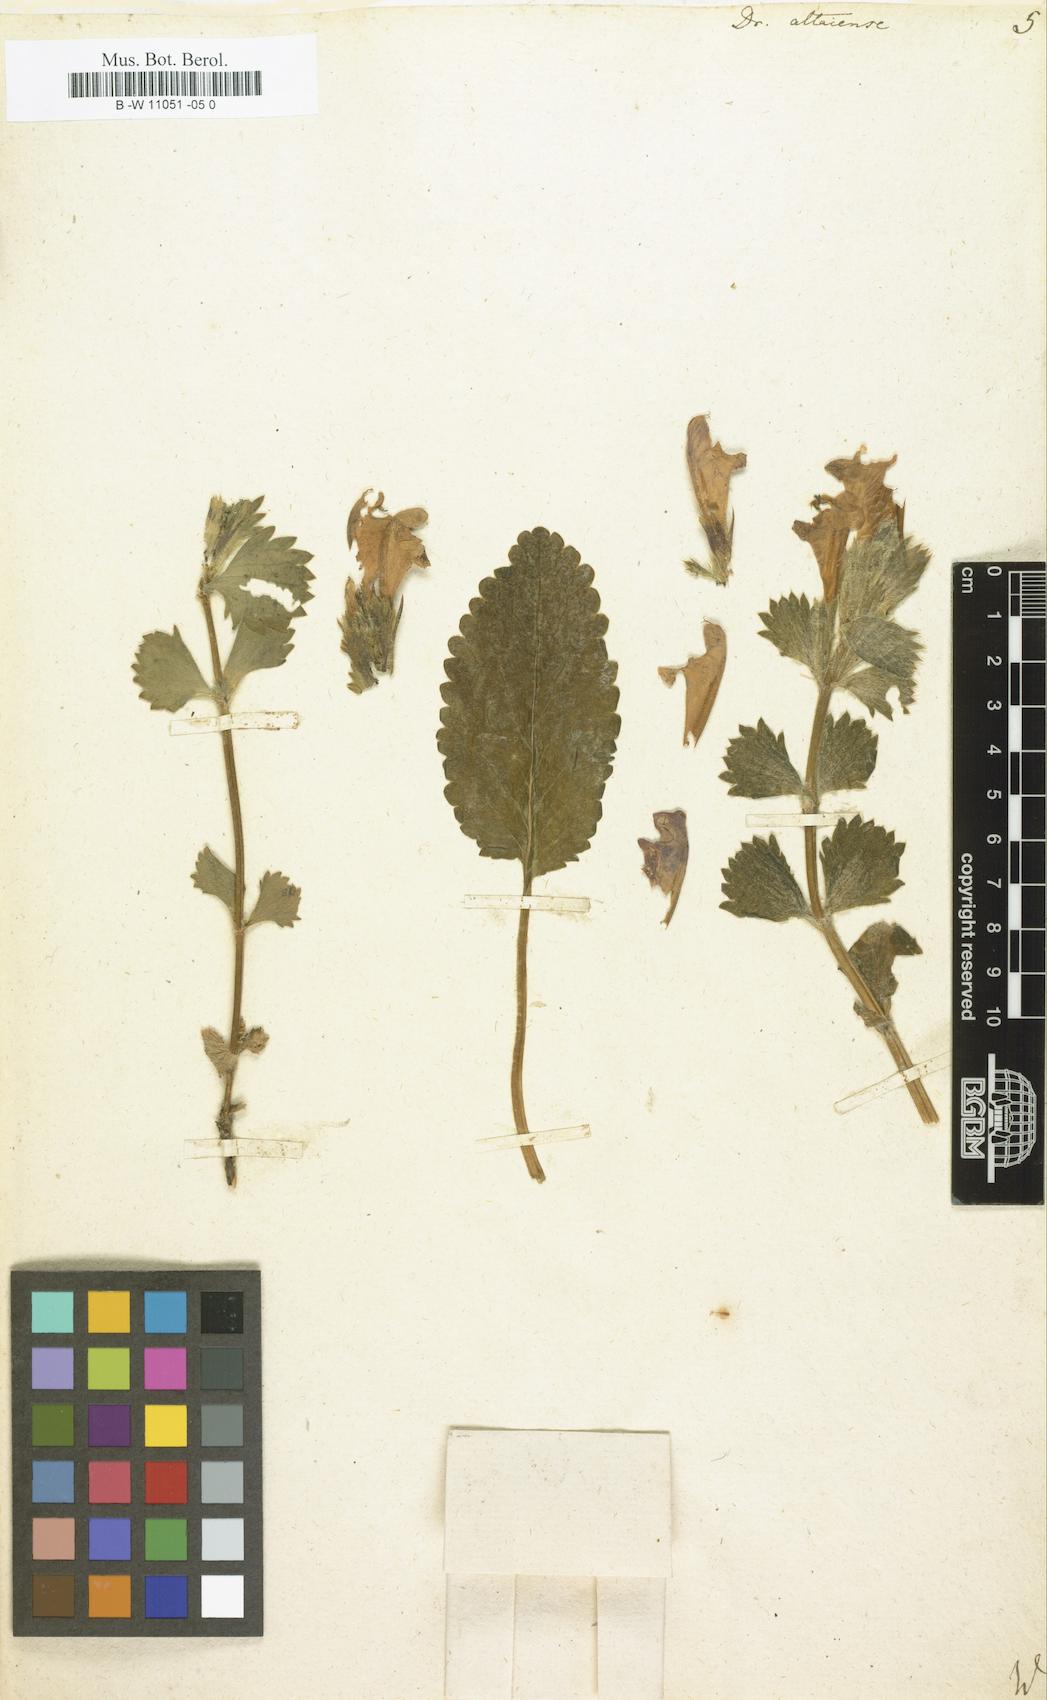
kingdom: Plantae
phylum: Tracheophyta
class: Magnoliopsida
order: Lamiales
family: Lamiaceae
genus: Dracocephalum
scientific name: Dracocephalum
